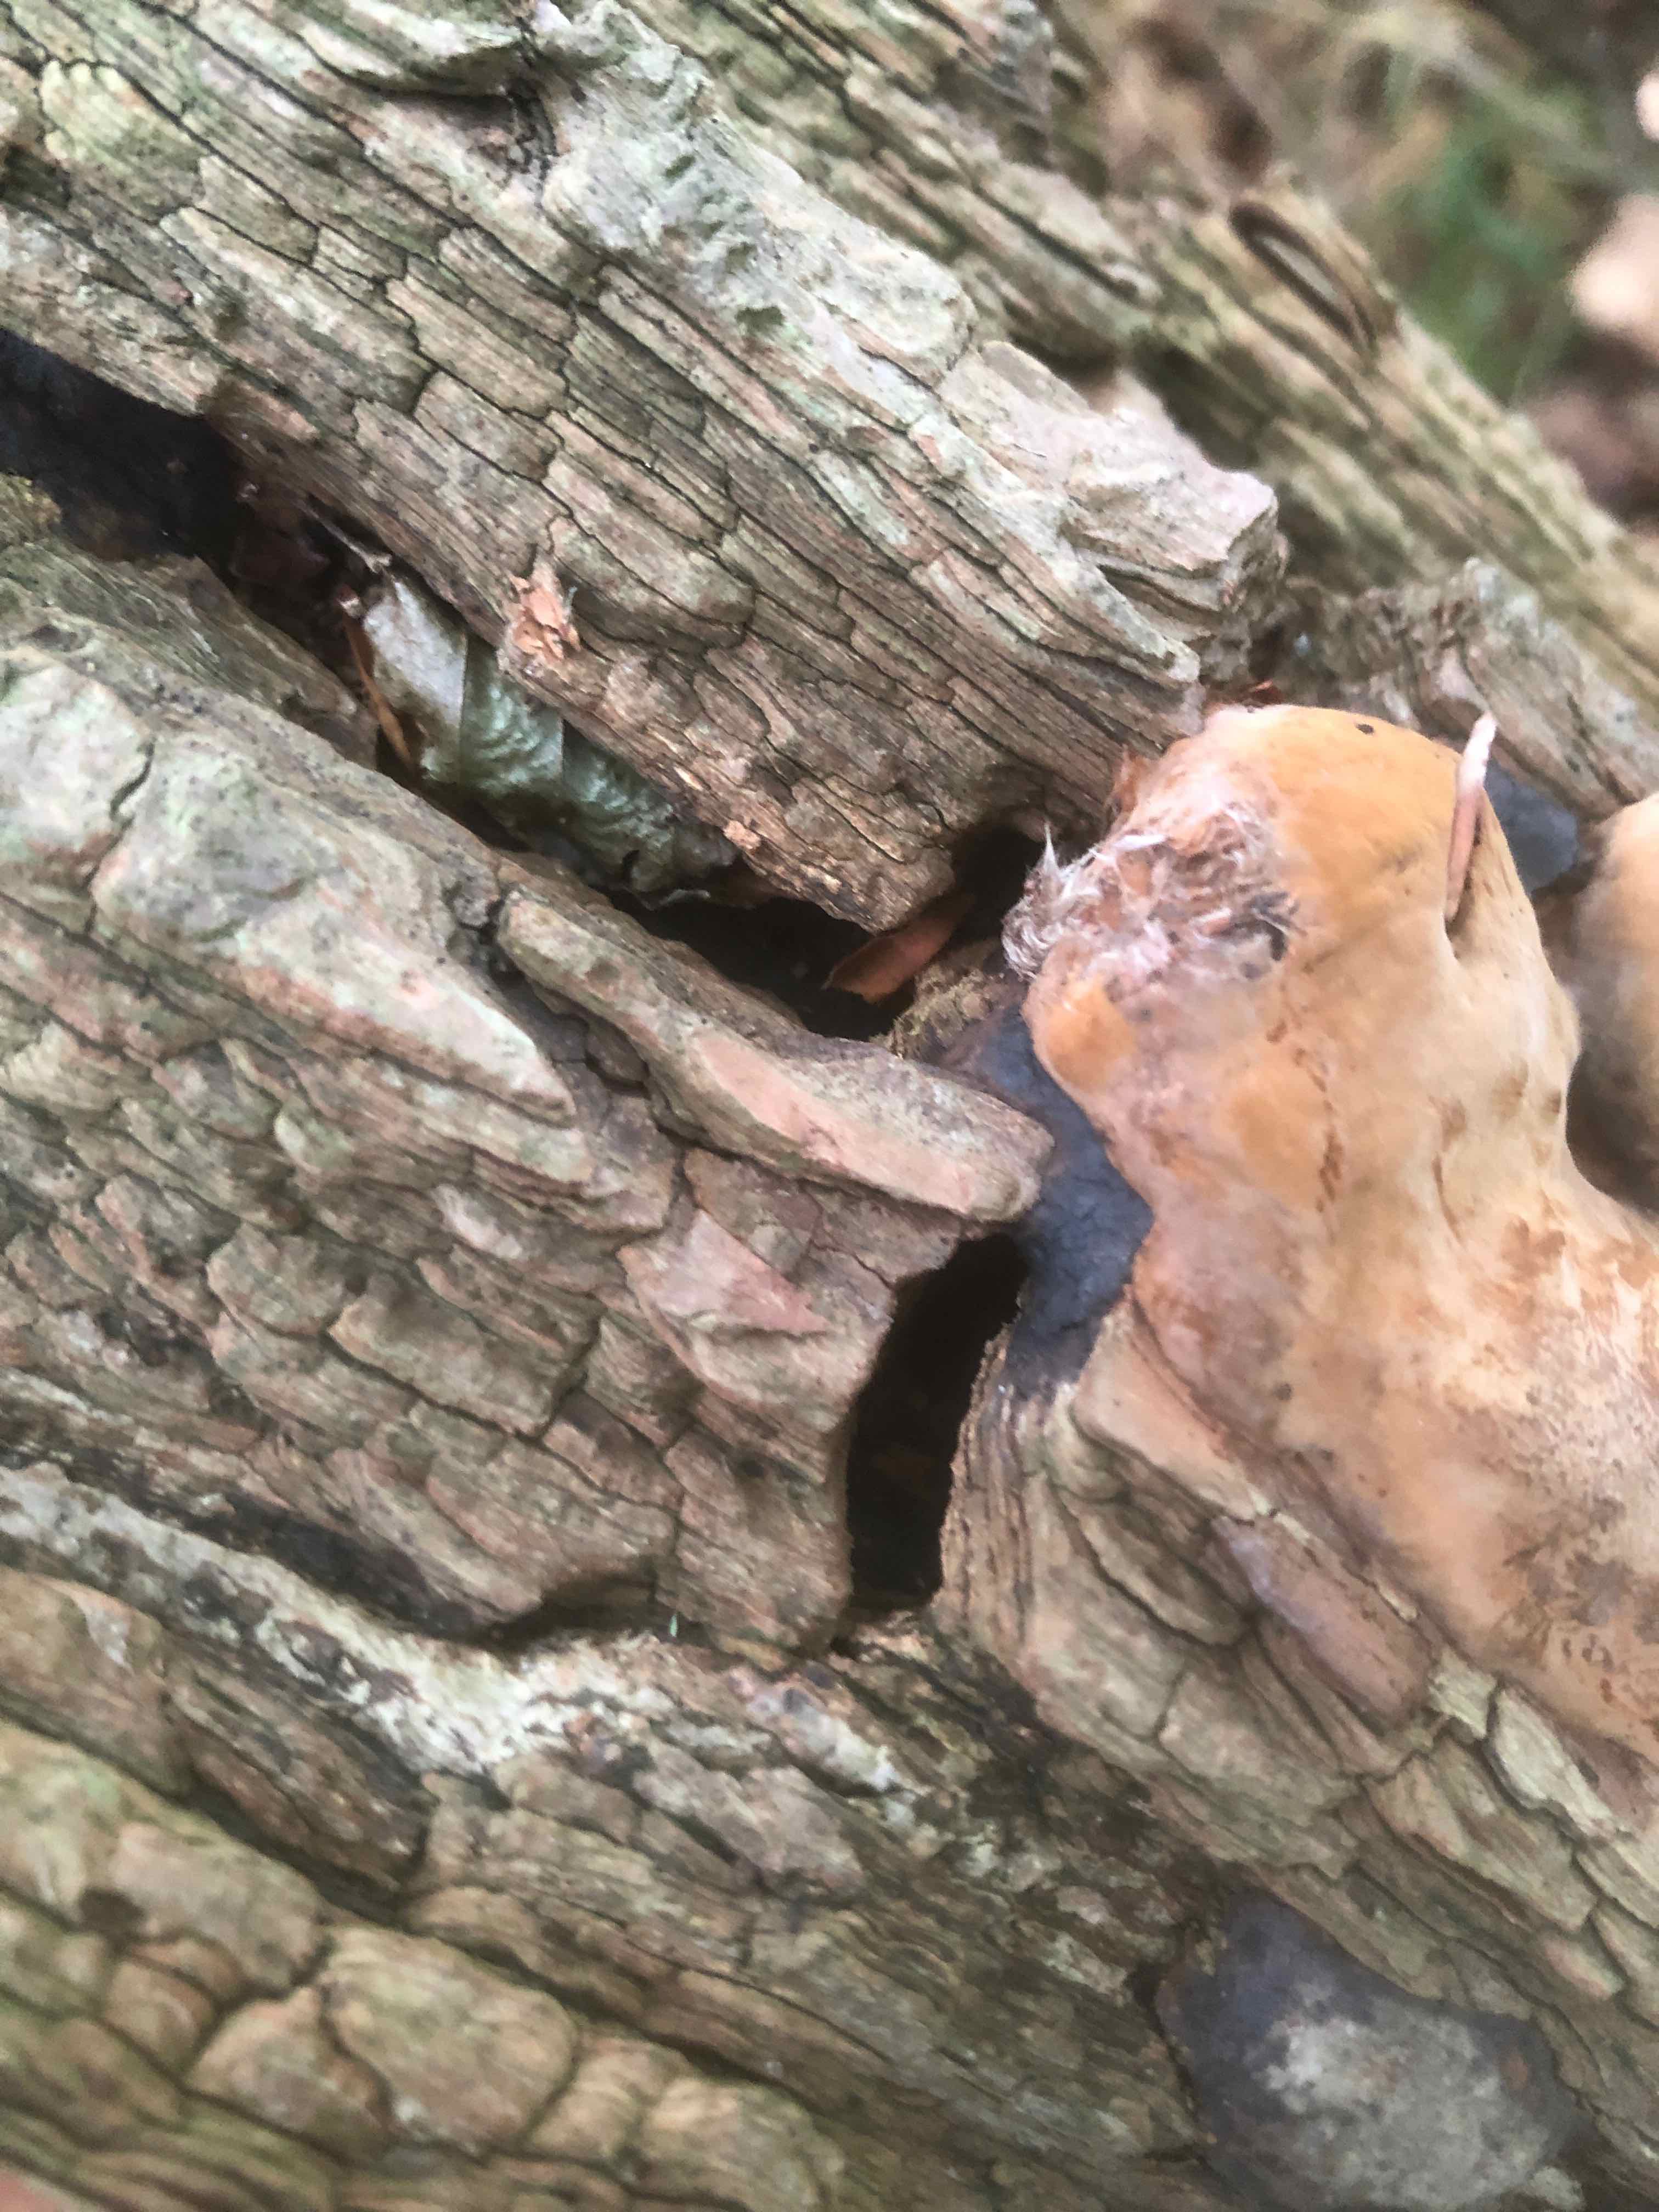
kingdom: Fungi
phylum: Basidiomycota
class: Agaricomycetes
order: Polyporales
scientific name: Polyporales
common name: poresvampordenen
